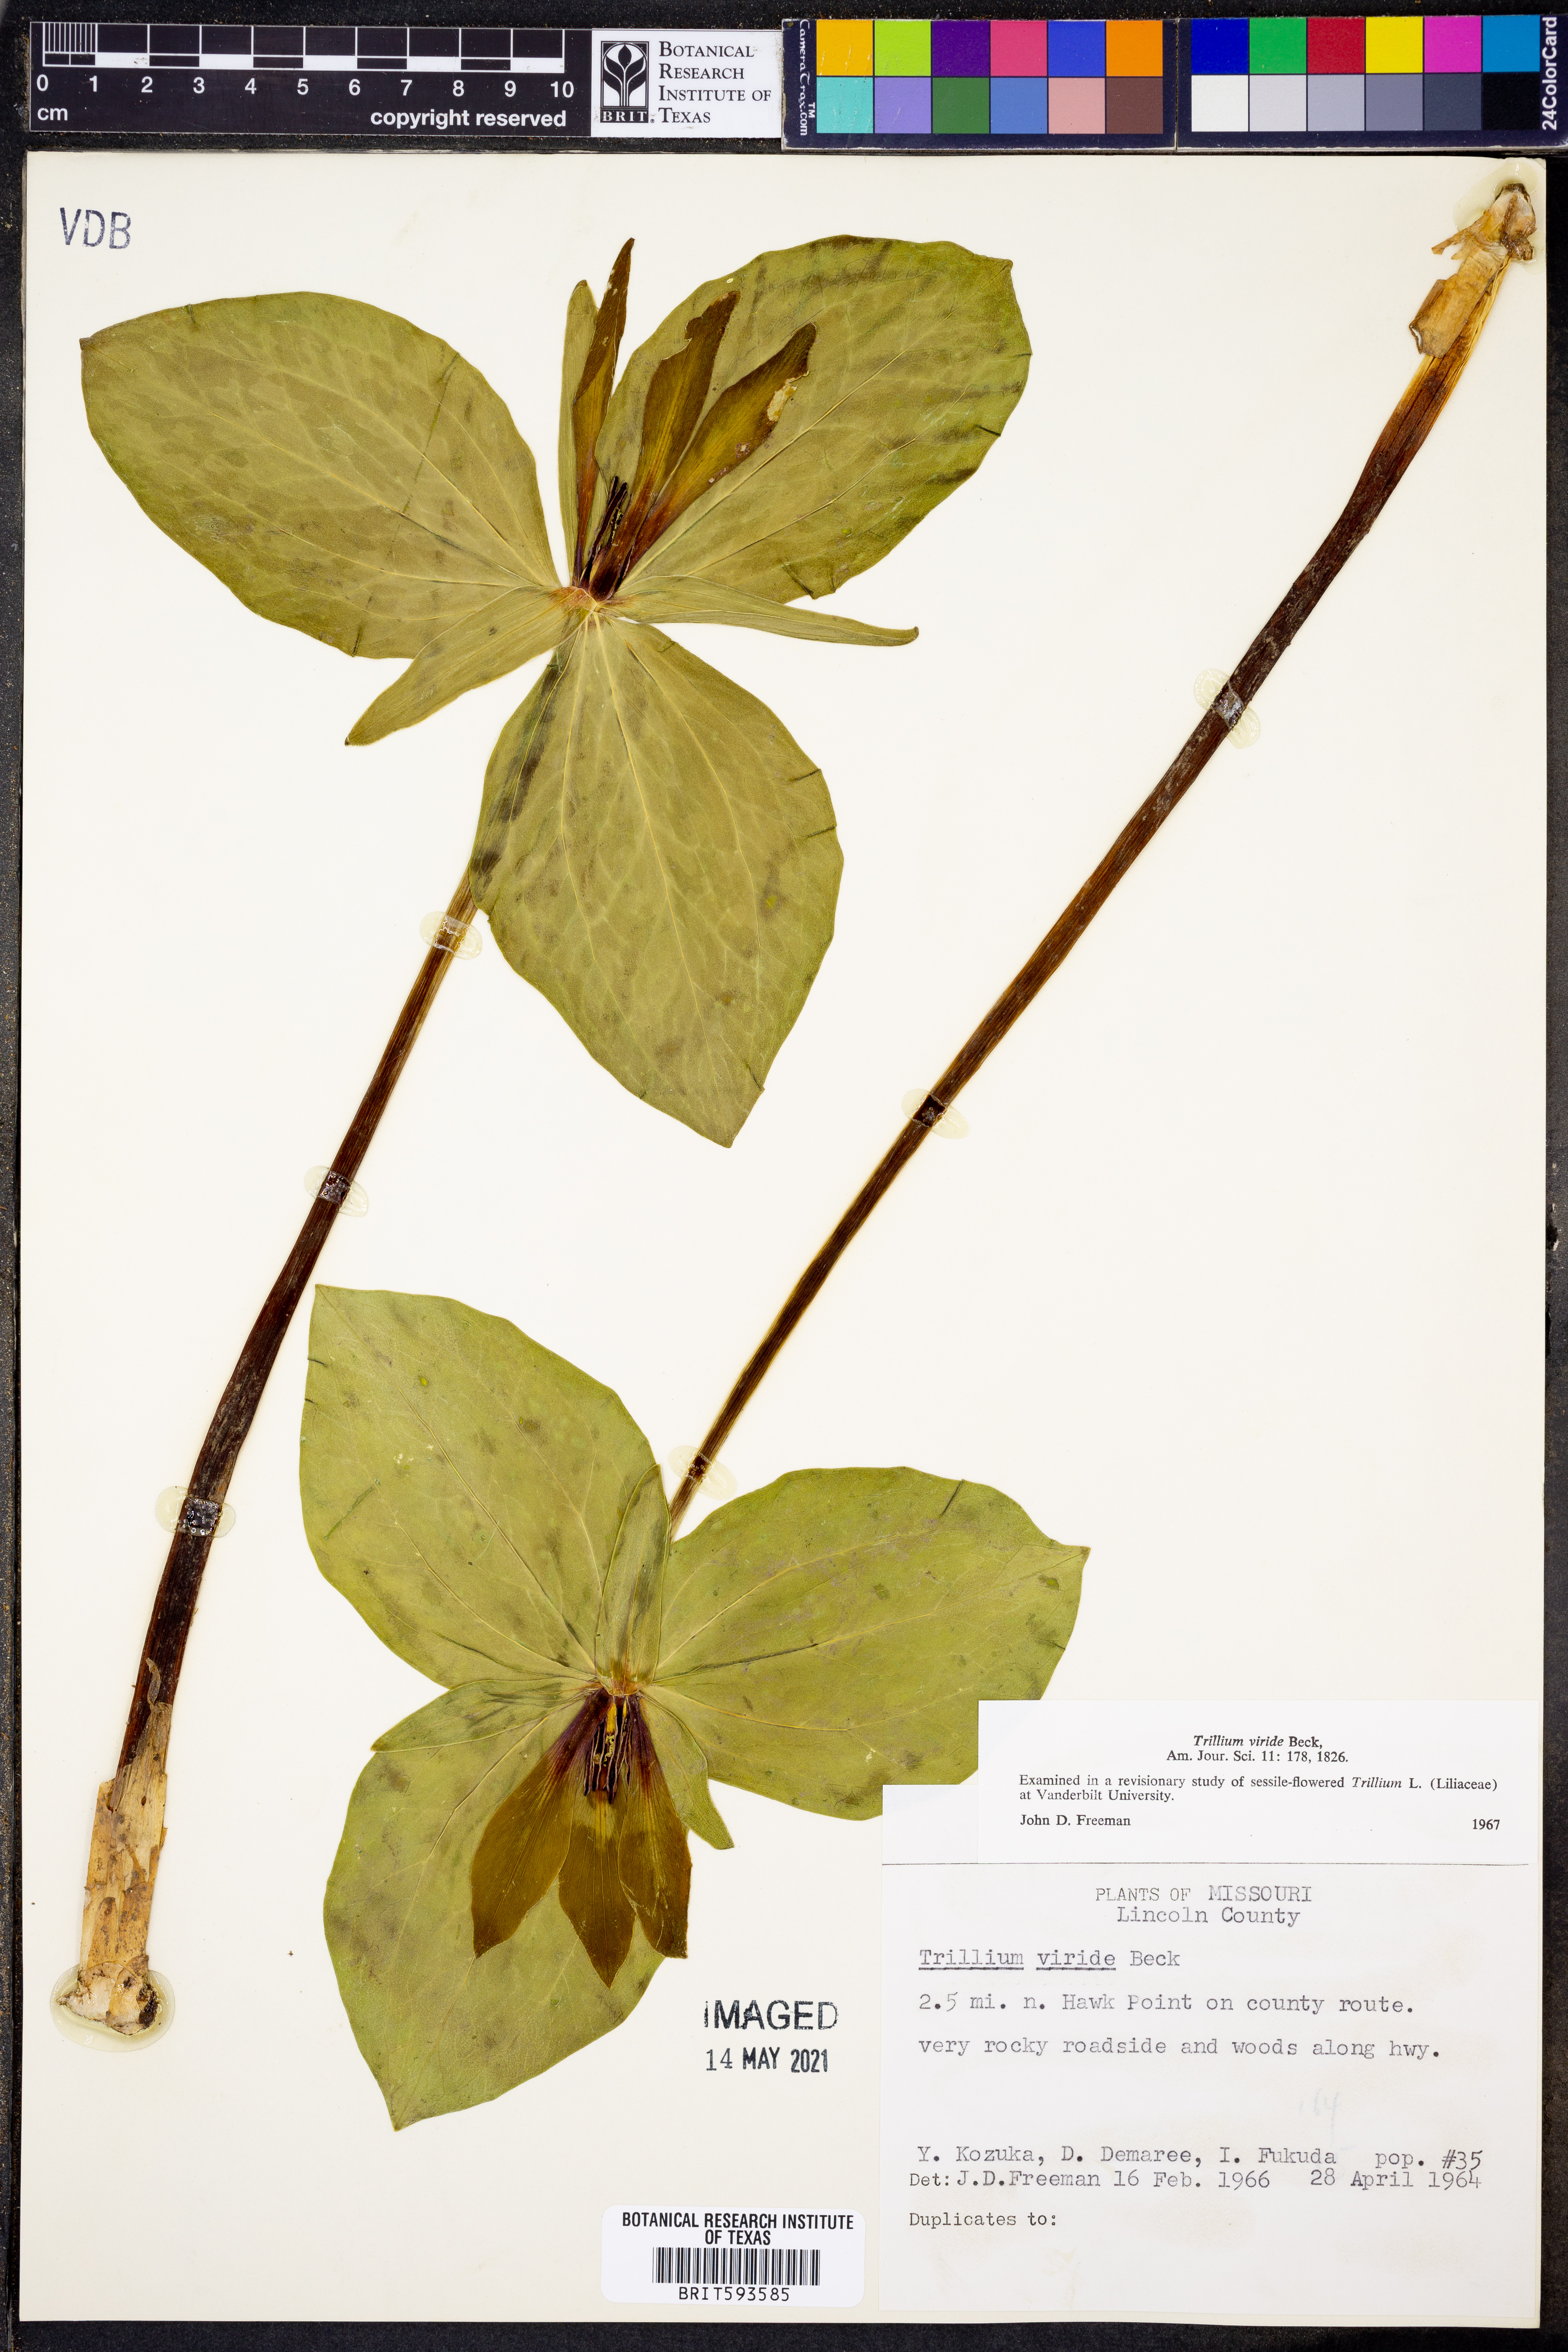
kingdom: Plantae
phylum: Tracheophyta
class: Liliopsida
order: Liliales
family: Melanthiaceae
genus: Trillium
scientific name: Trillium viride
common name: Green trillium
